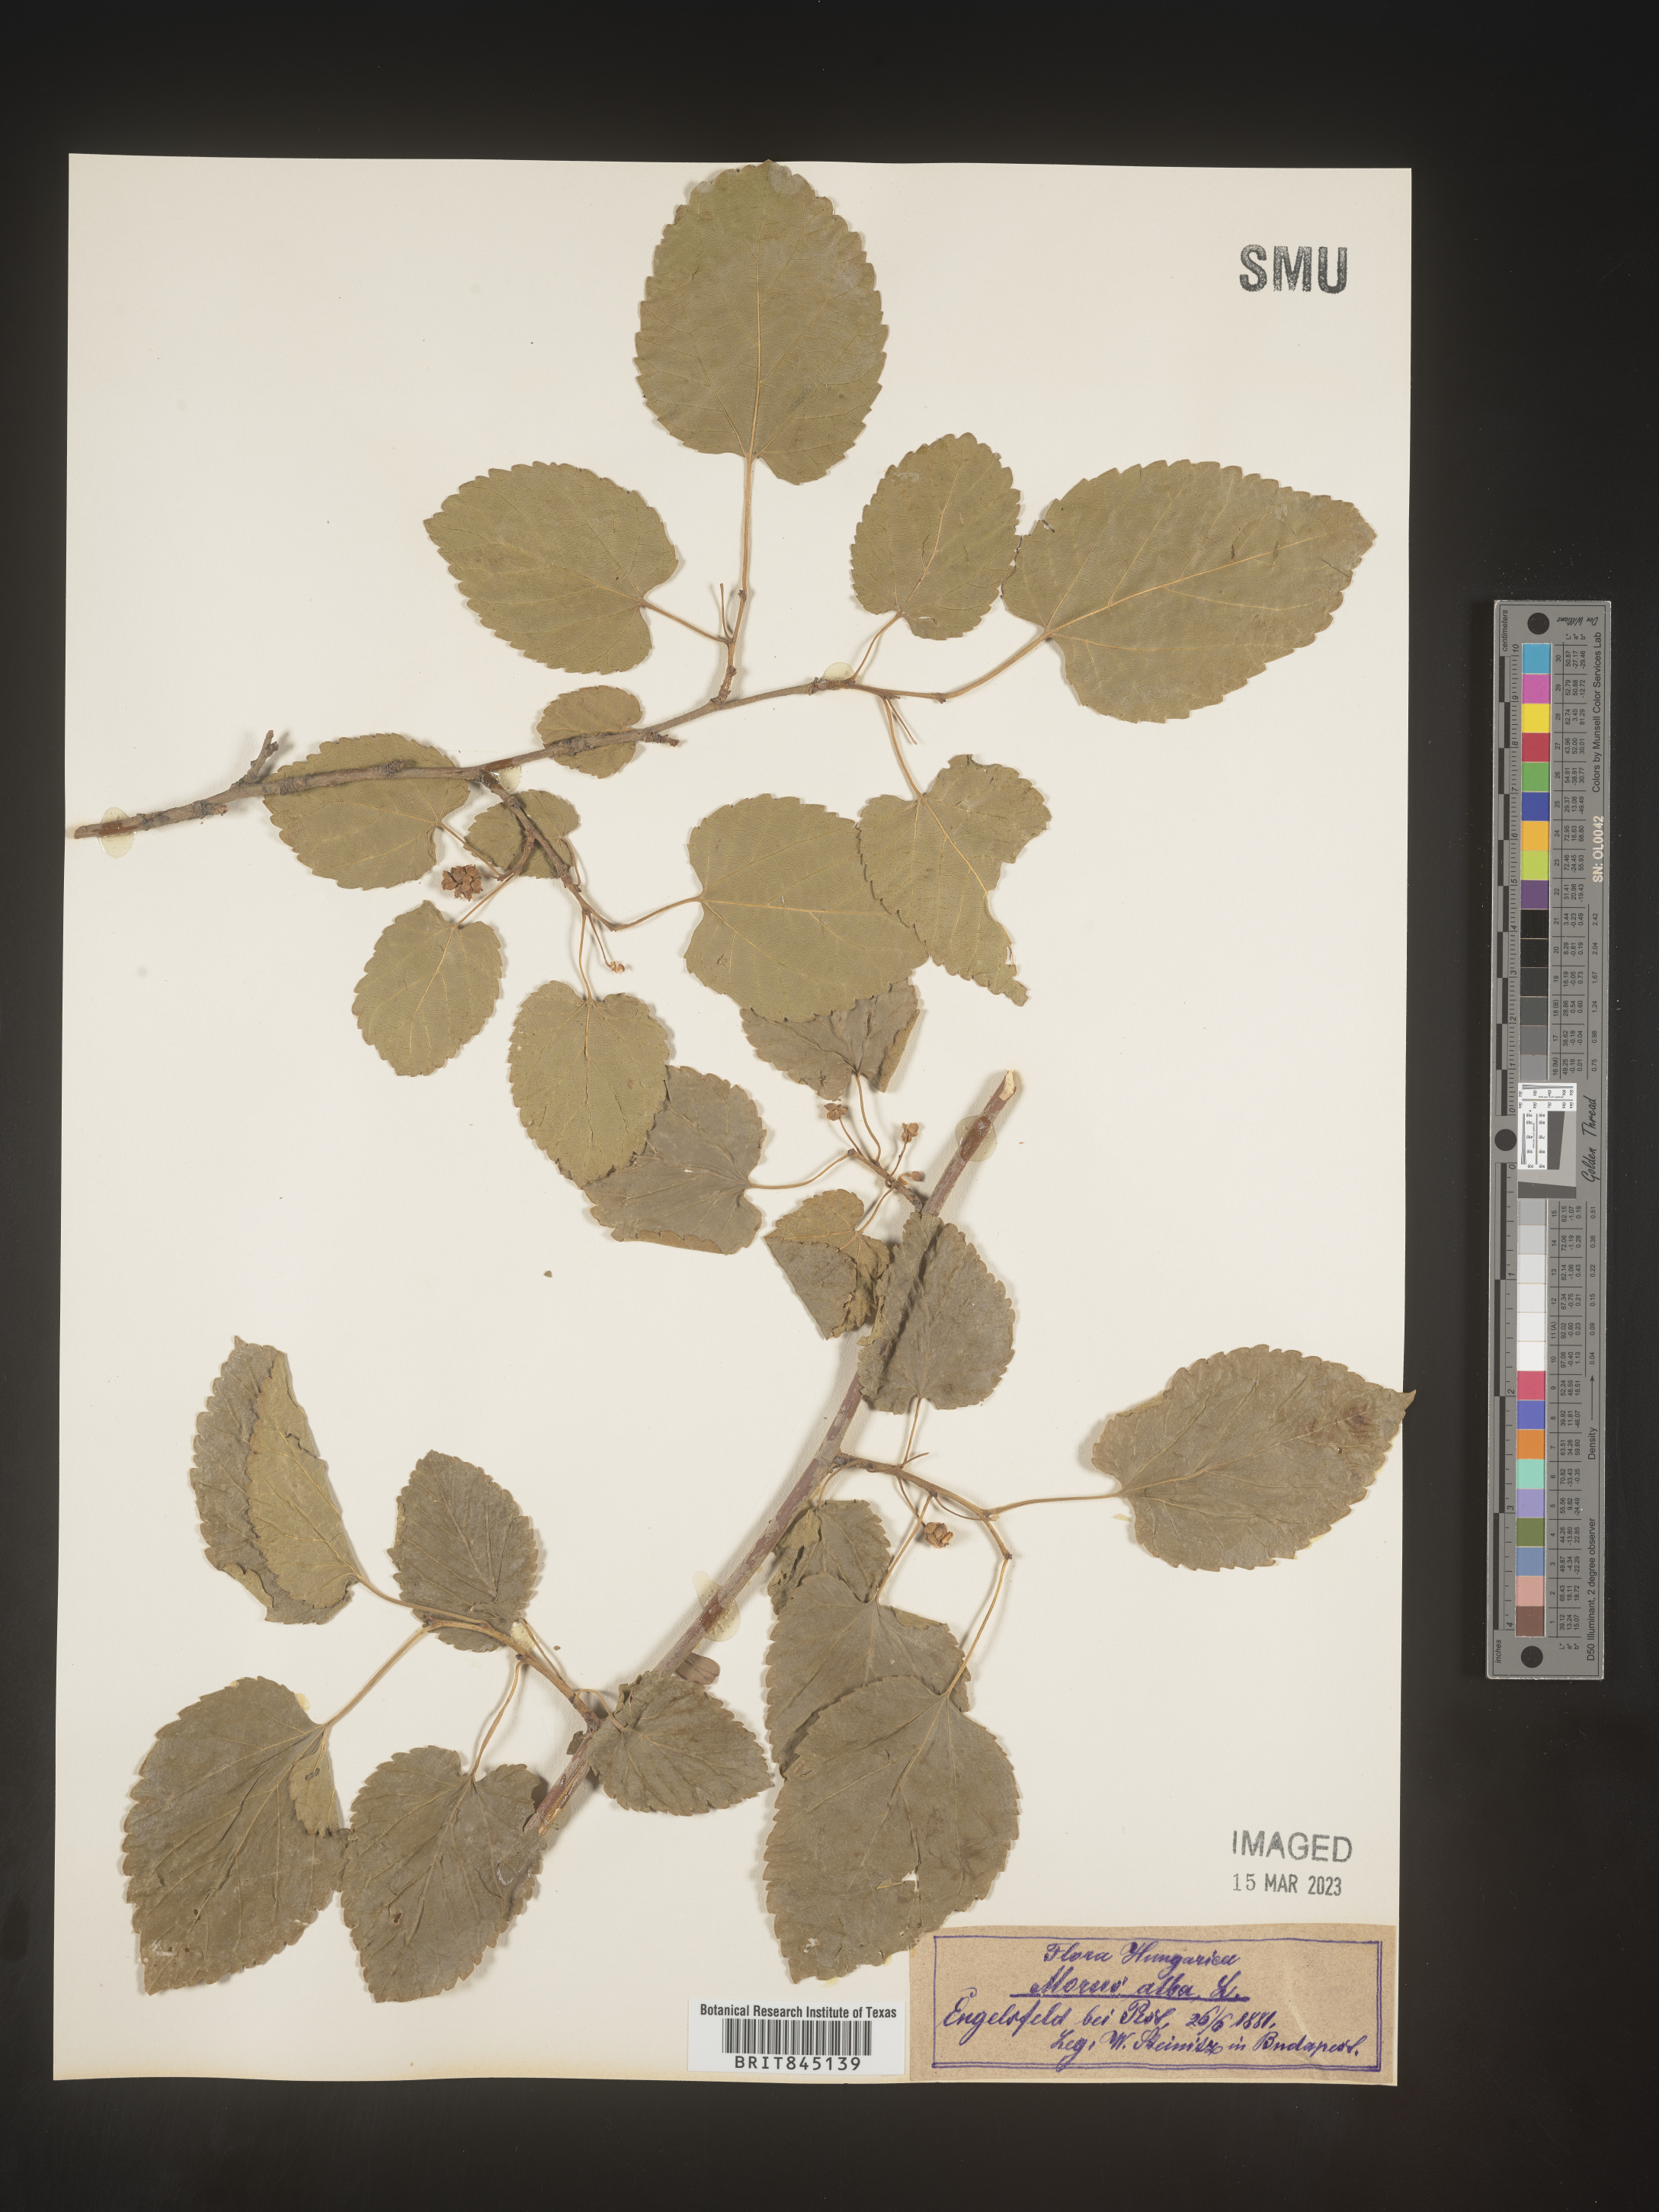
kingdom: Plantae
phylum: Tracheophyta
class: Magnoliopsida
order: Rosales
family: Moraceae
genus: Morus
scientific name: Morus alba
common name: White mulberry
